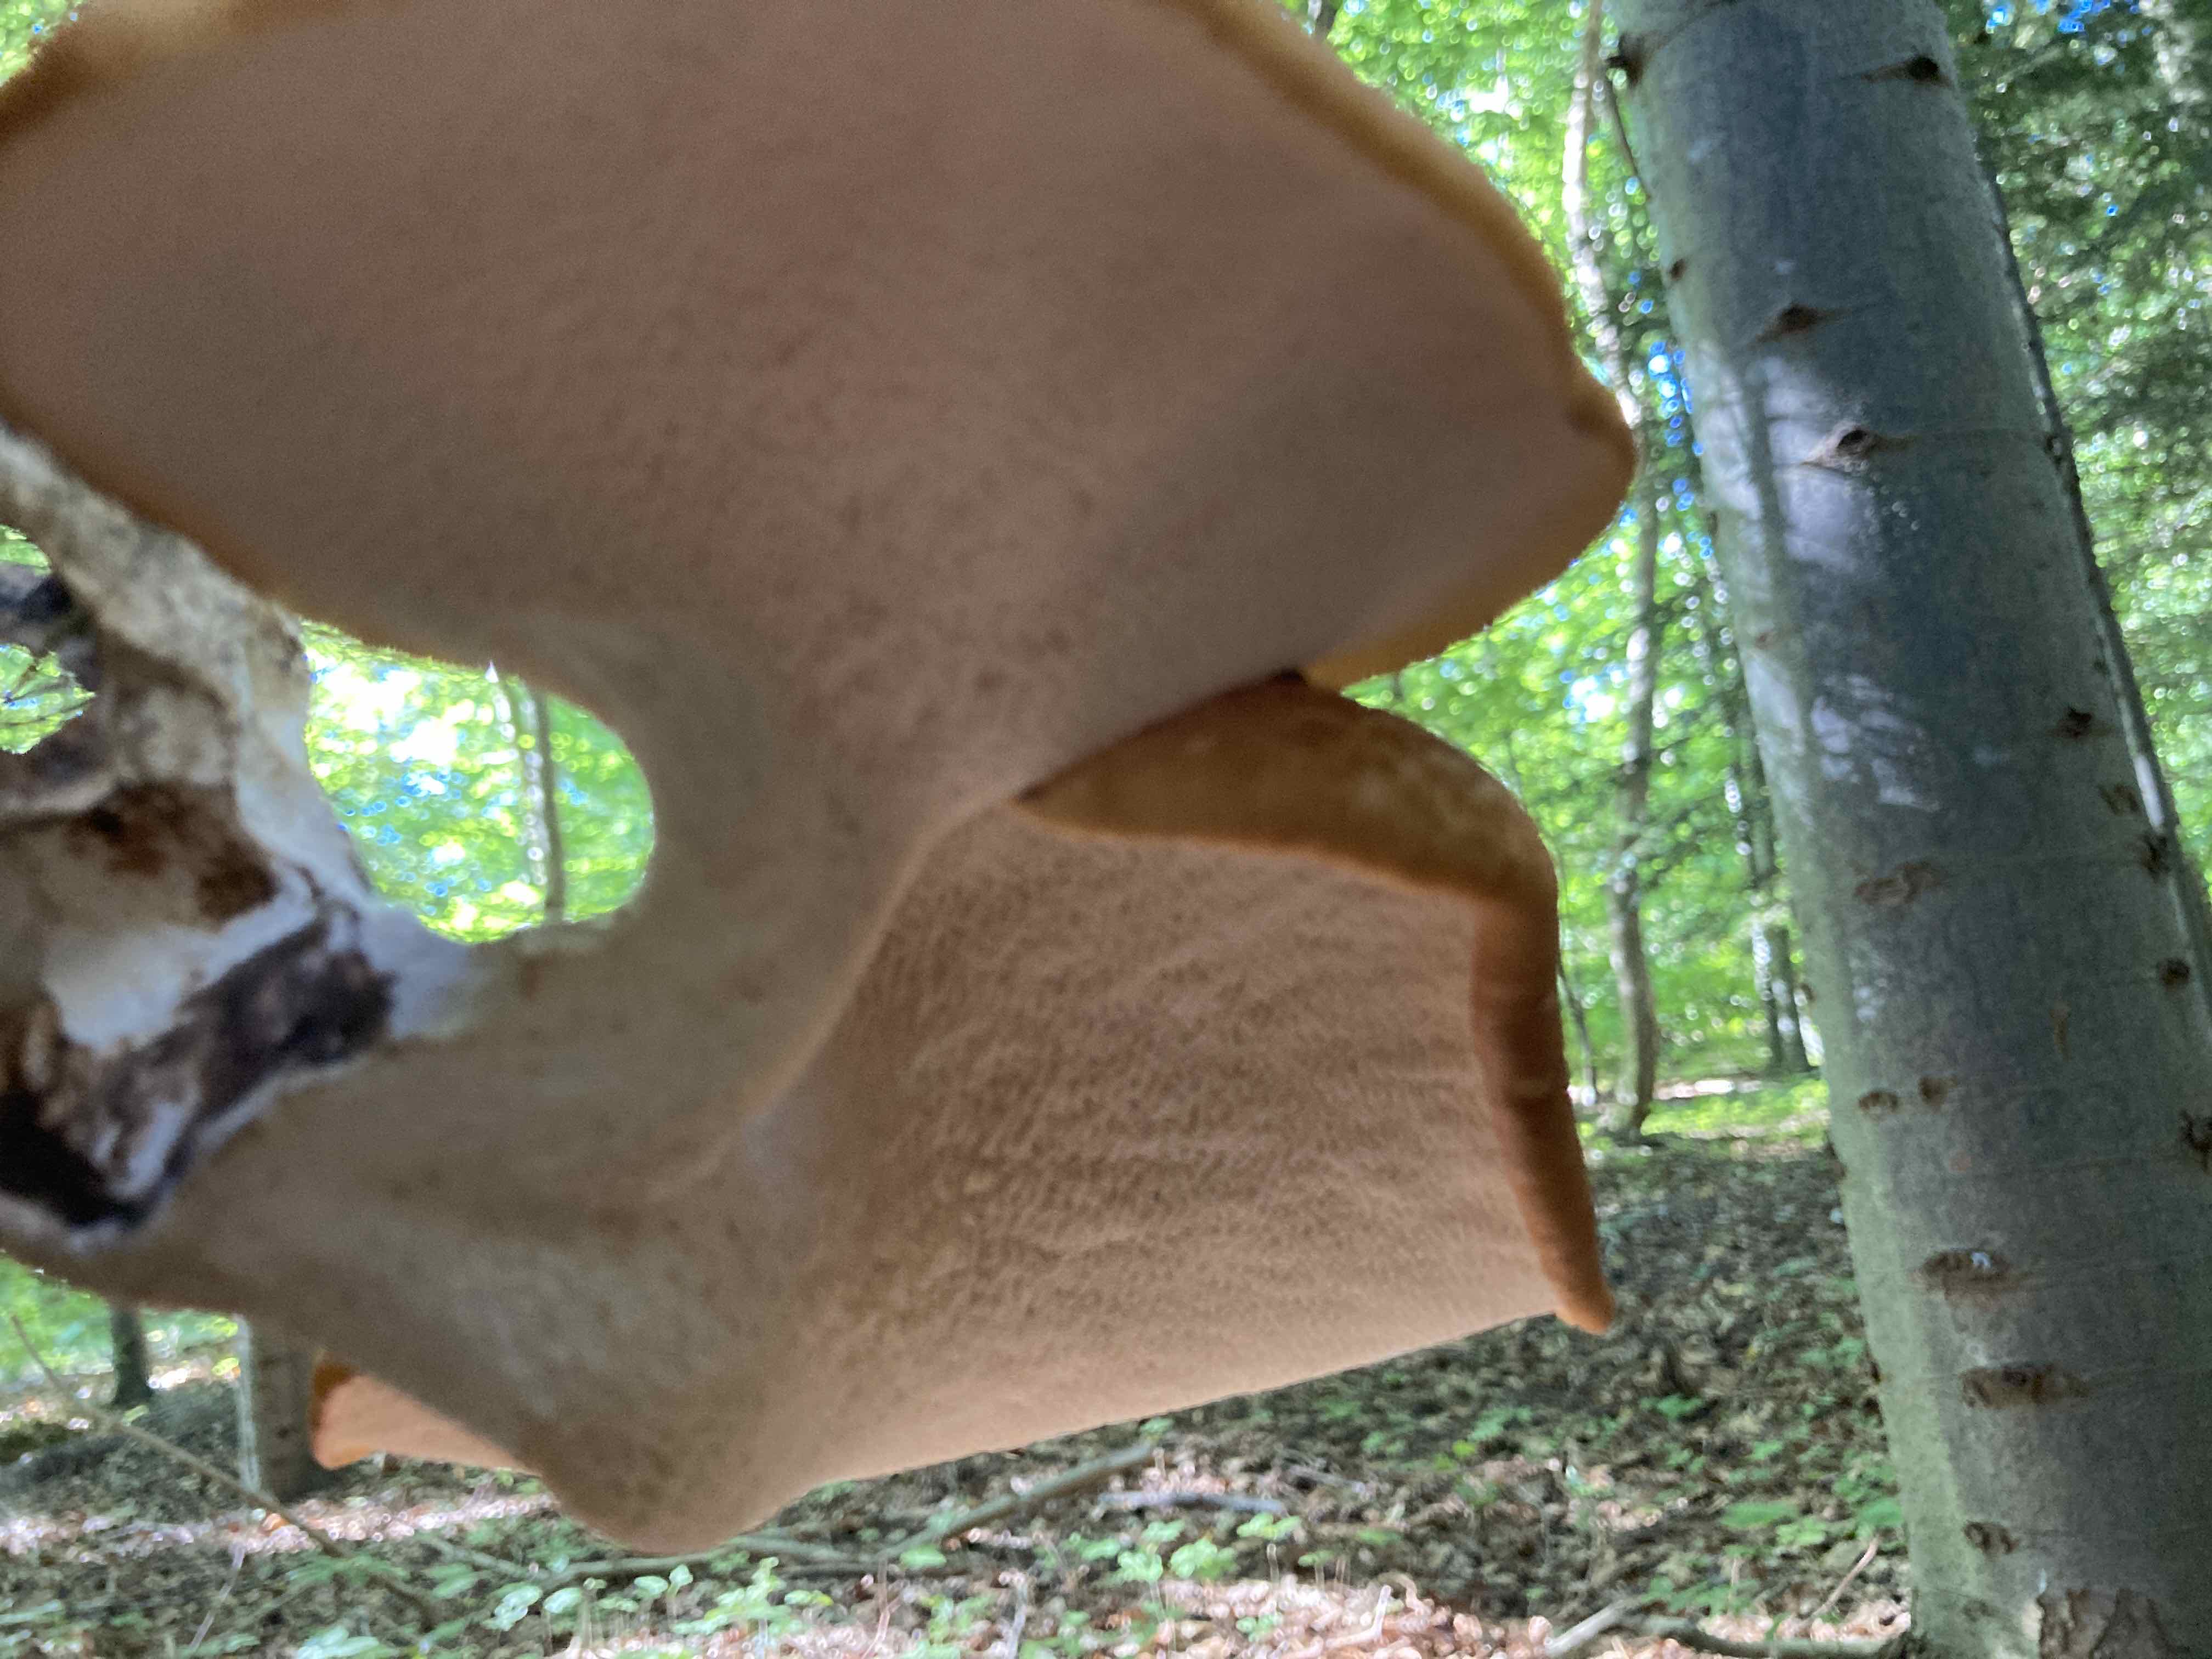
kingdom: Fungi
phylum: Basidiomycota
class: Agaricomycetes
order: Polyporales
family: Polyporaceae
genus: Cerioporus
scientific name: Cerioporus squamosus
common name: skællet stilkporesvamp
